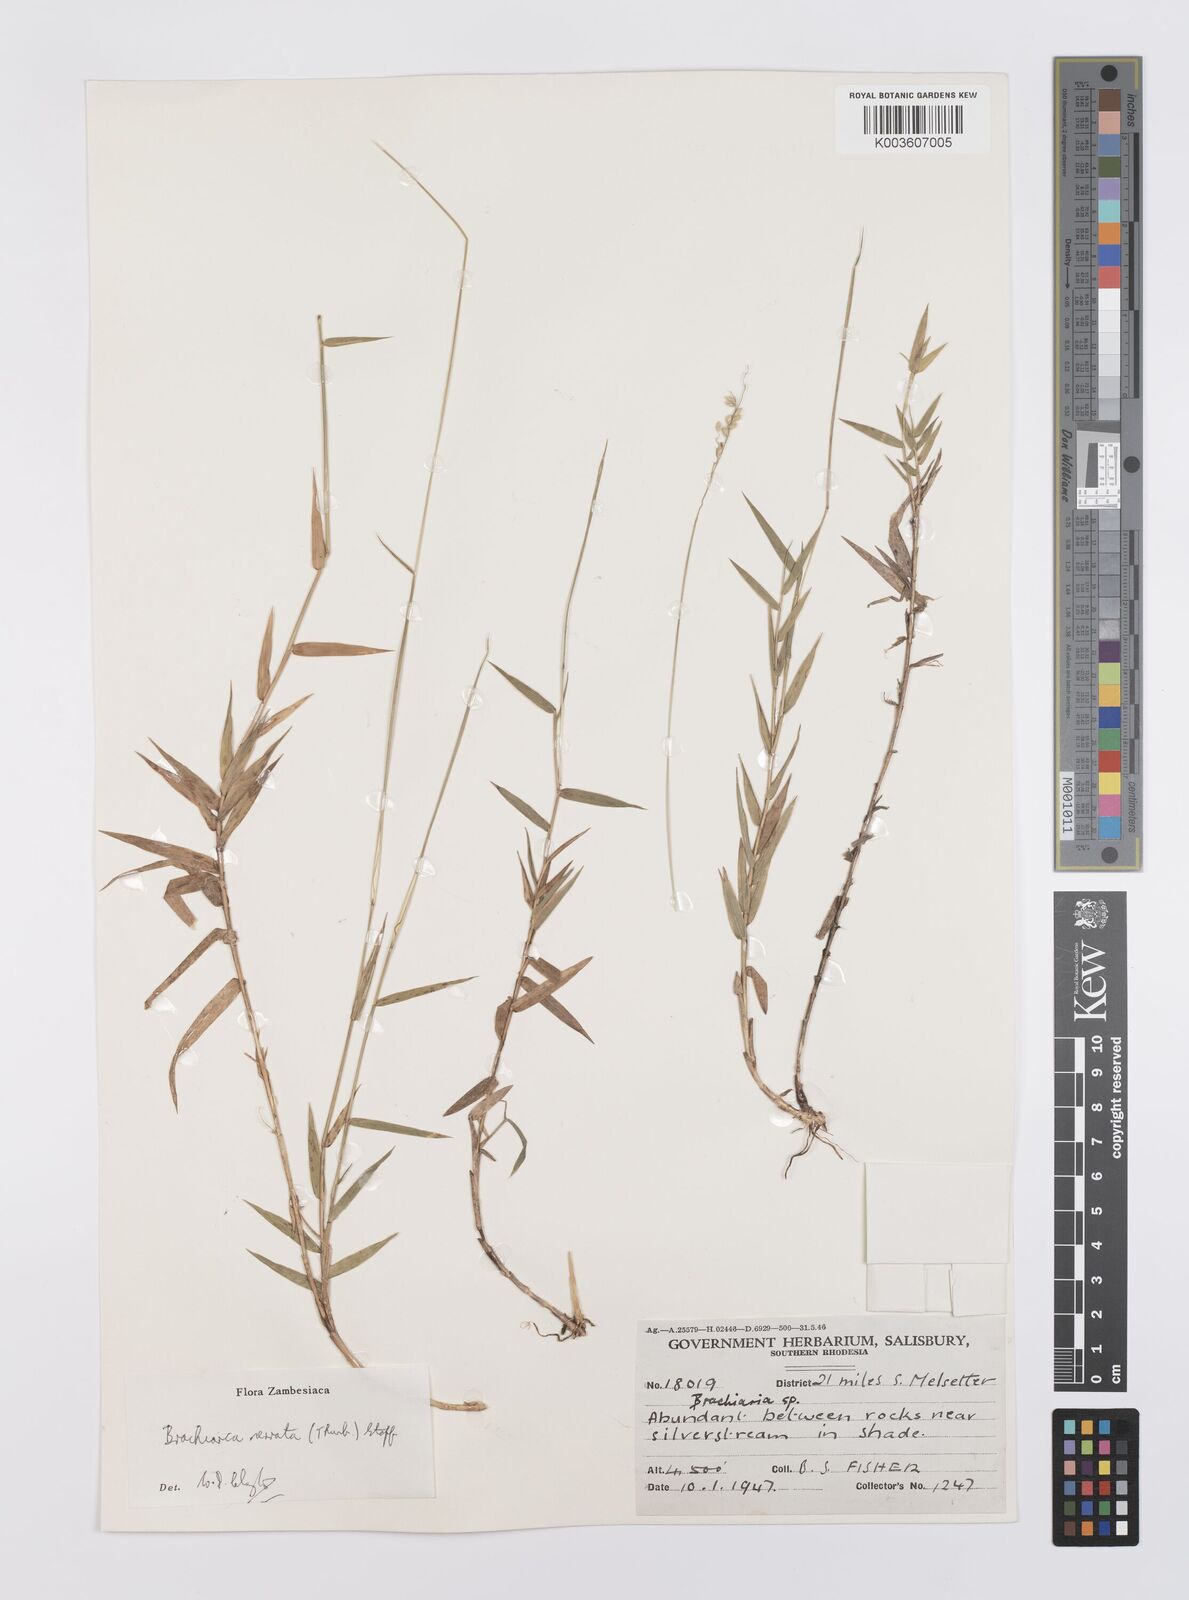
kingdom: Plantae
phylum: Tracheophyta
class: Liliopsida
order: Poales
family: Poaceae
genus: Urochloa
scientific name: Urochloa serrata
